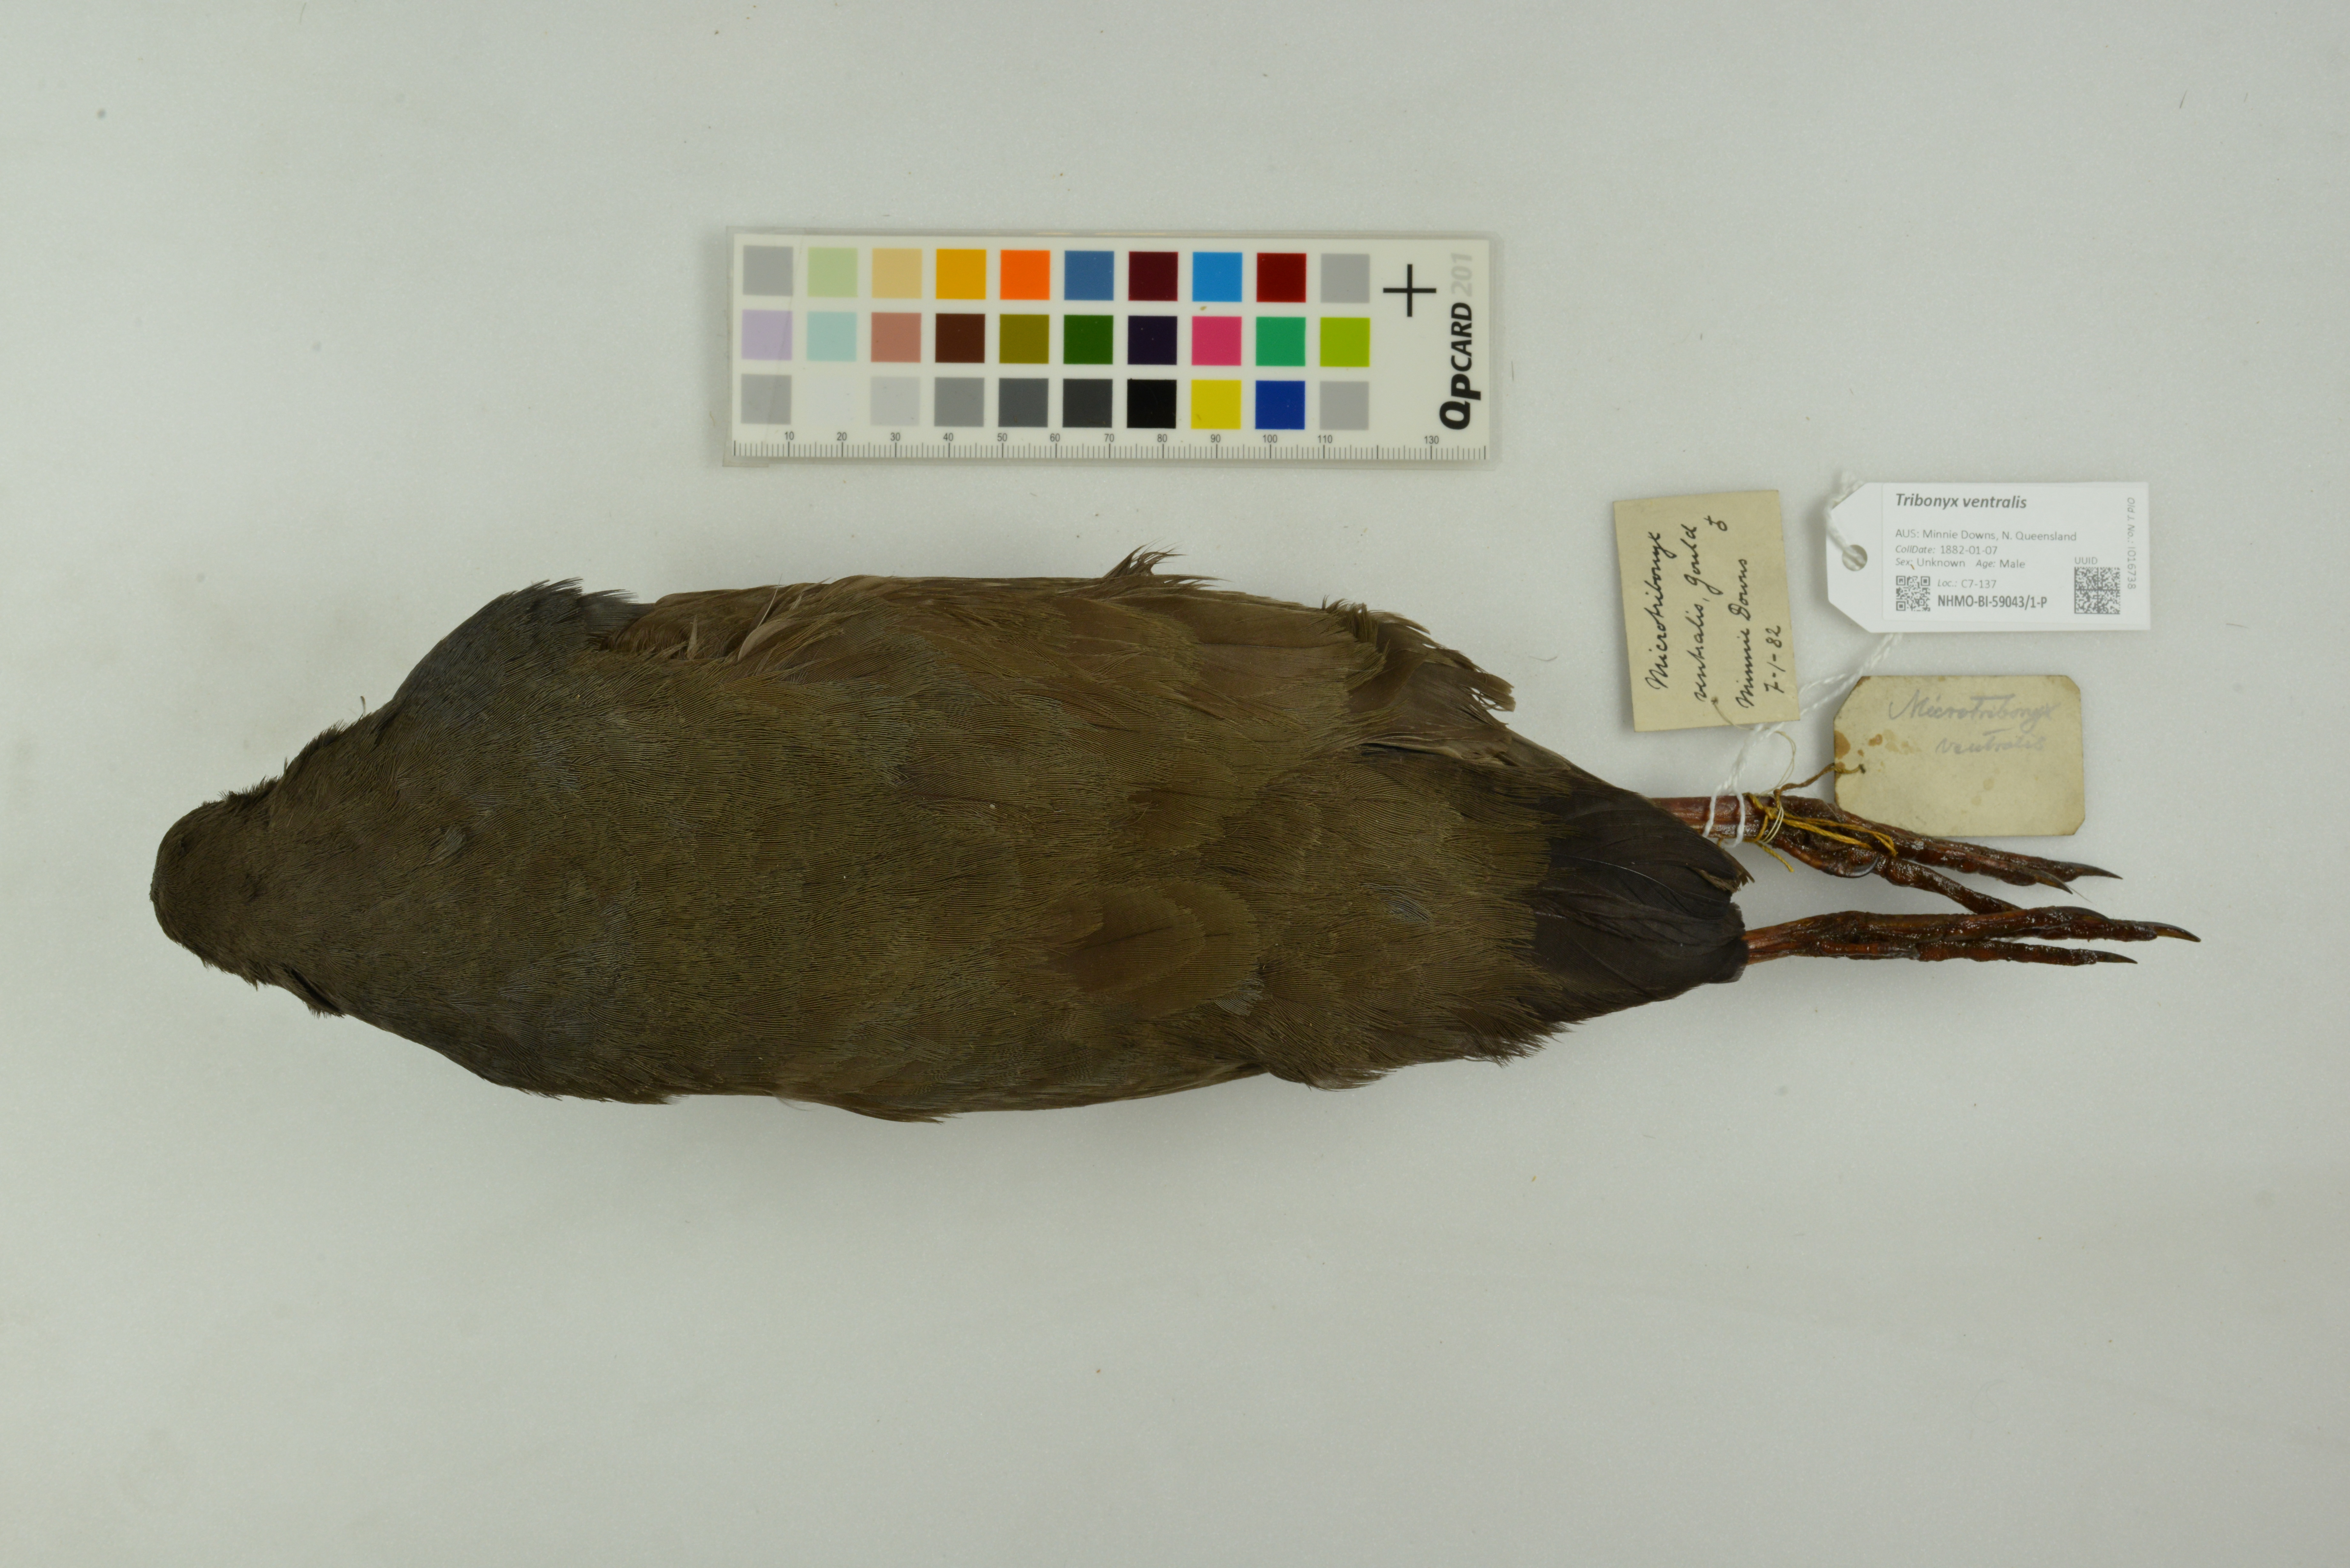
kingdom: Animalia
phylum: Chordata
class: Aves
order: Gruiformes
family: Rallidae
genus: Gallinula
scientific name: Gallinula ventralis
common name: Black-tailed nativehen
